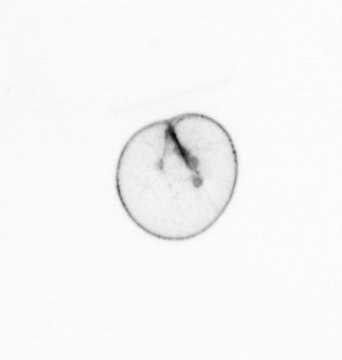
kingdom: Chromista
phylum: Myzozoa
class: Dinophyceae
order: Noctilucales
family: Noctilucaceae
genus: Noctiluca
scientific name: Noctiluca scintillans
